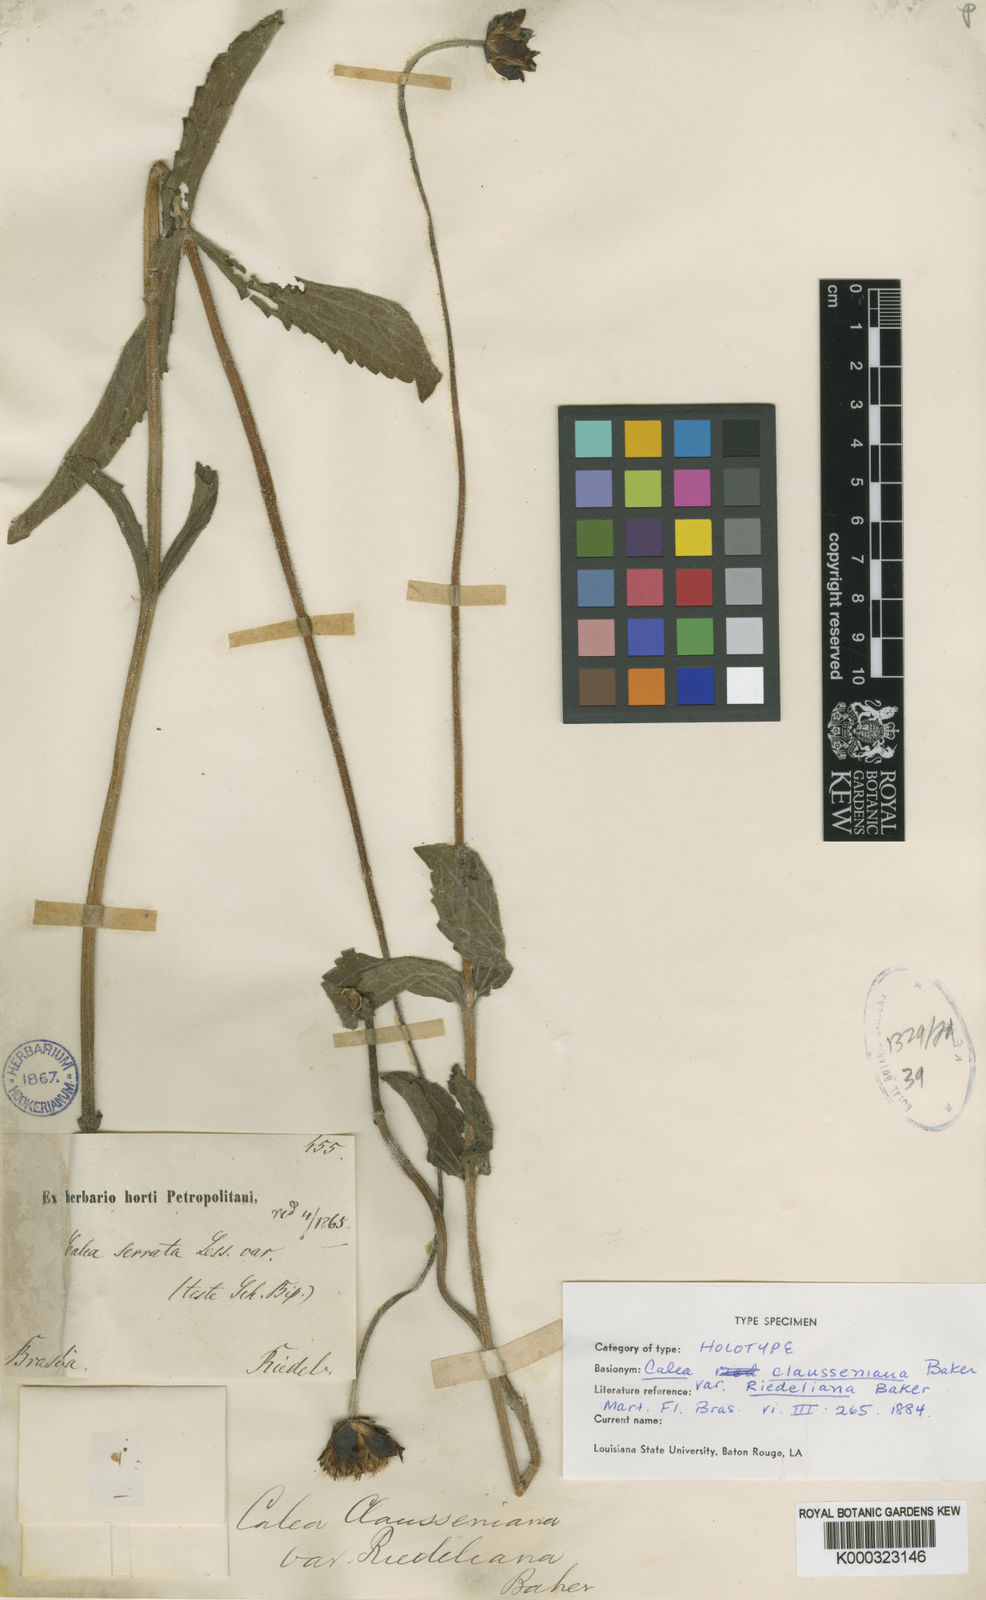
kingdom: Plantae
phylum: Tracheophyta
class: Magnoliopsida
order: Asterales
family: Asteraceae
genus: Tetrachyron
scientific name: Tetrachyron grayi
